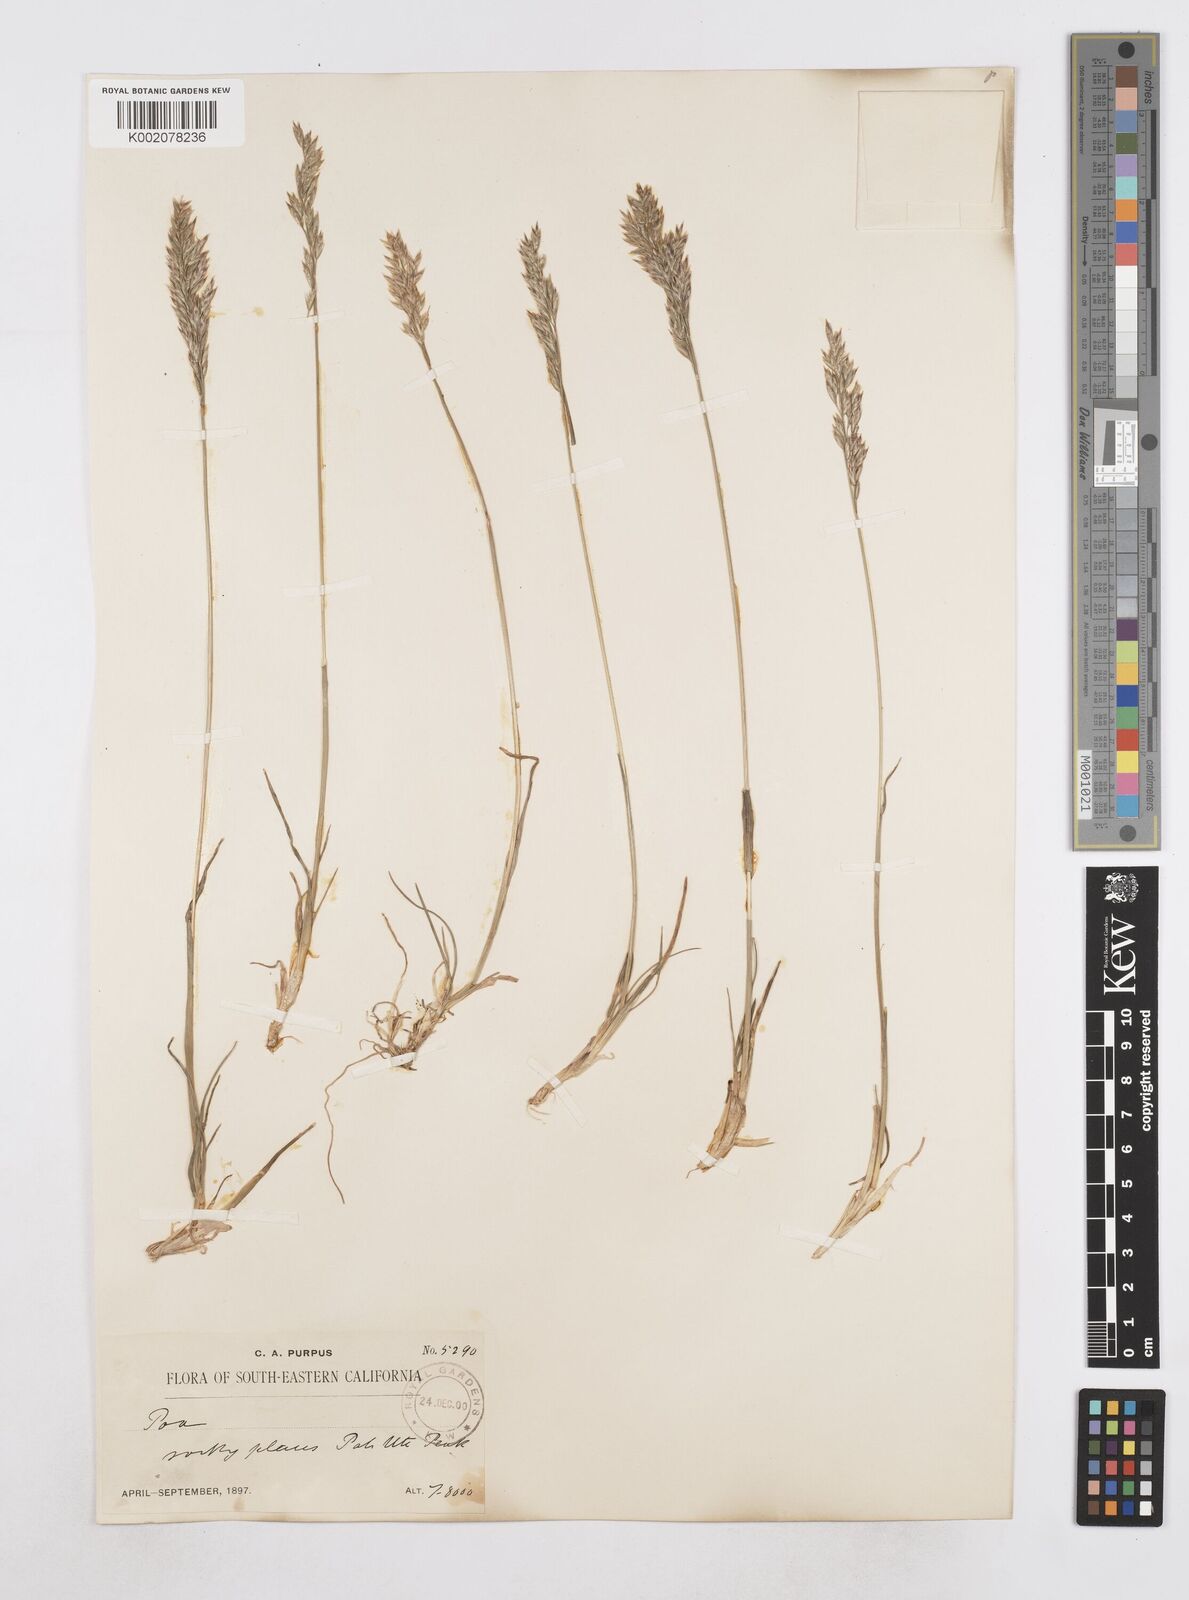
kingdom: Plantae
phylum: Tracheophyta
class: Liliopsida
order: Poales
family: Poaceae
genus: Poa
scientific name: Poa
